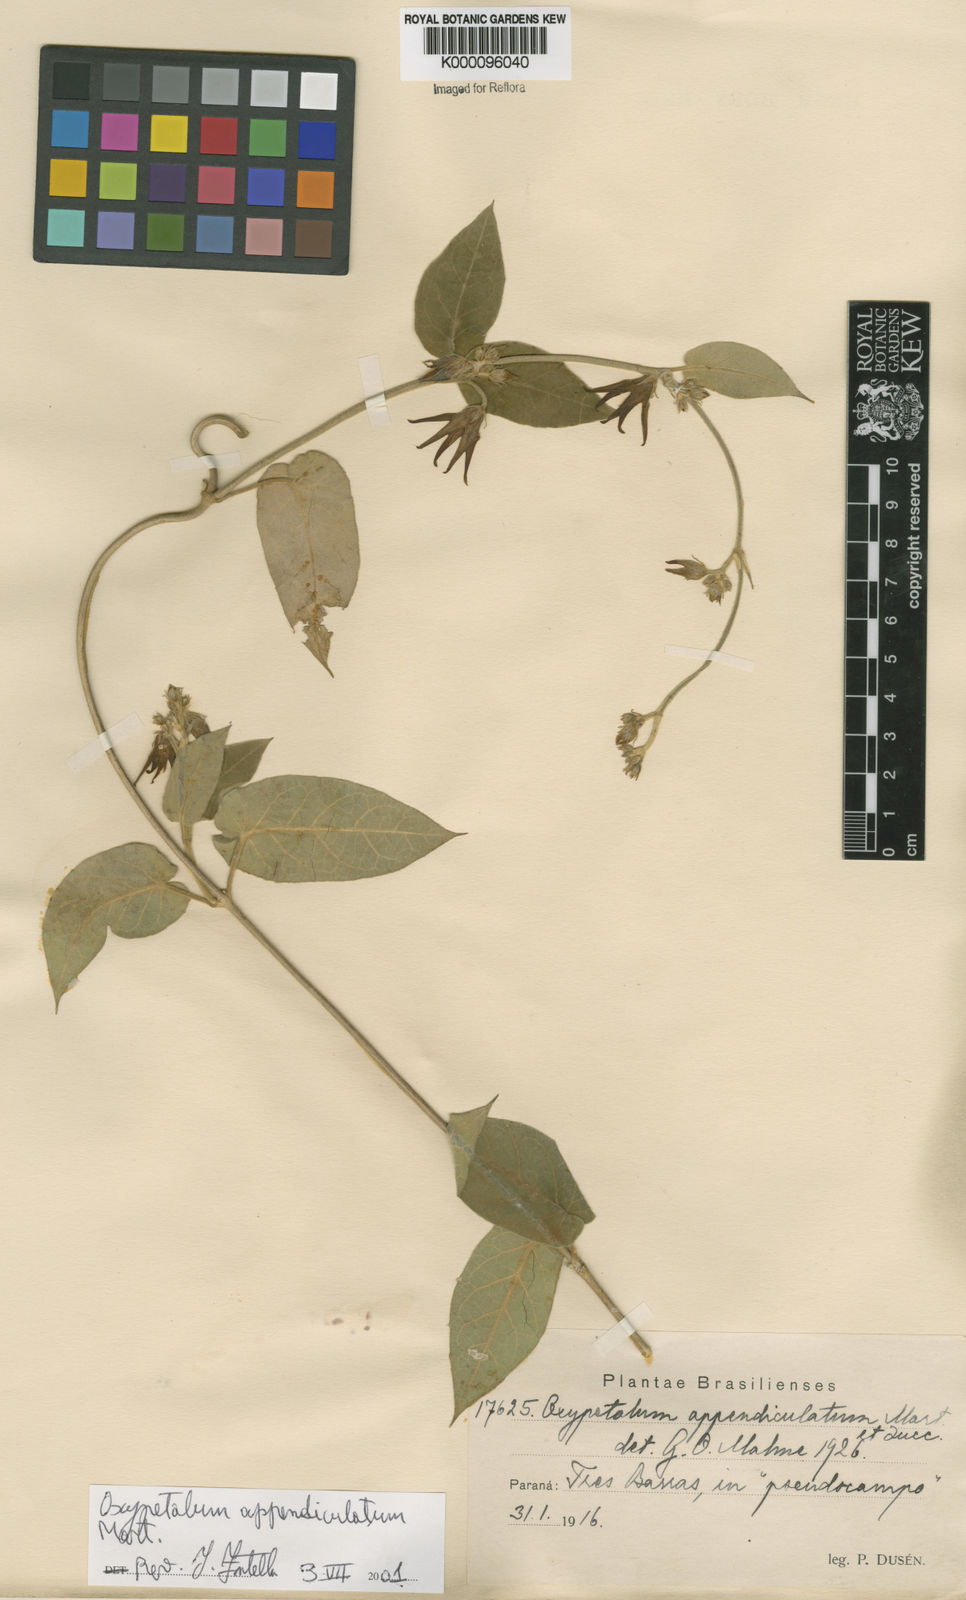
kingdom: Plantae
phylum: Tracheophyta
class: Magnoliopsida
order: Gentianales
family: Apocynaceae
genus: Oxypetalum
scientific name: Oxypetalum appendiculatum
